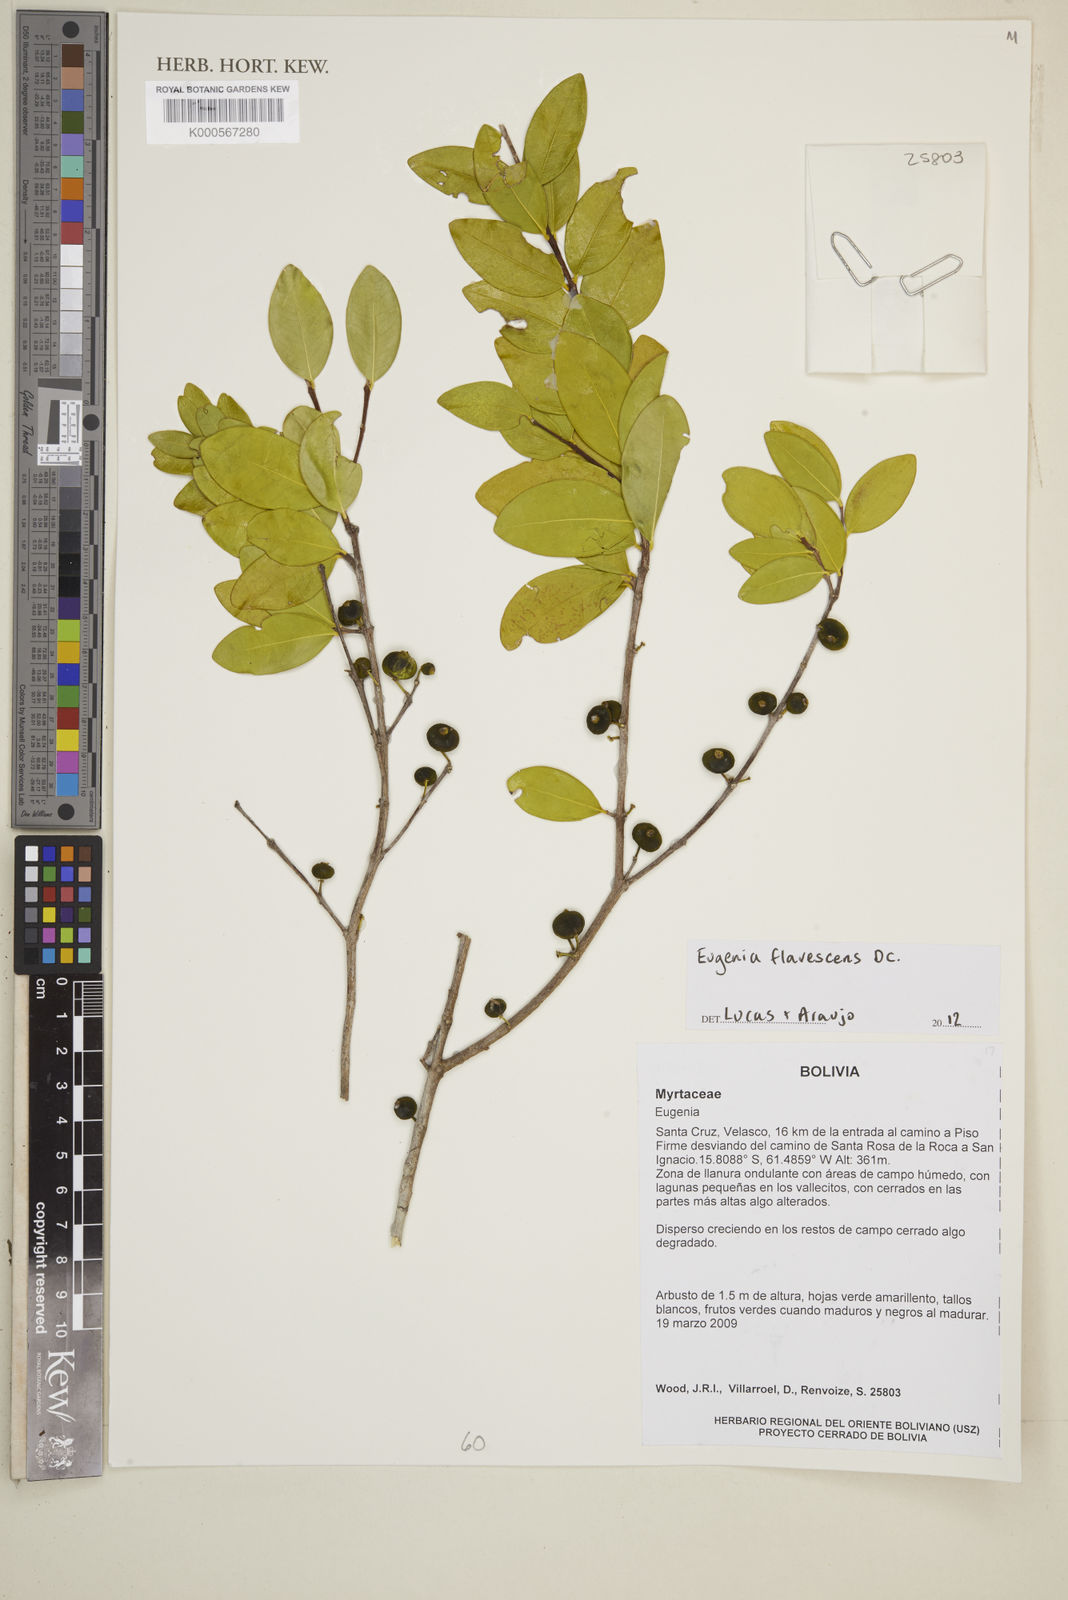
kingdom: Plantae
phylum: Tracheophyta
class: Magnoliopsida
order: Myrtales
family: Myrtaceae
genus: Eugenia
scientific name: Eugenia flavescens
